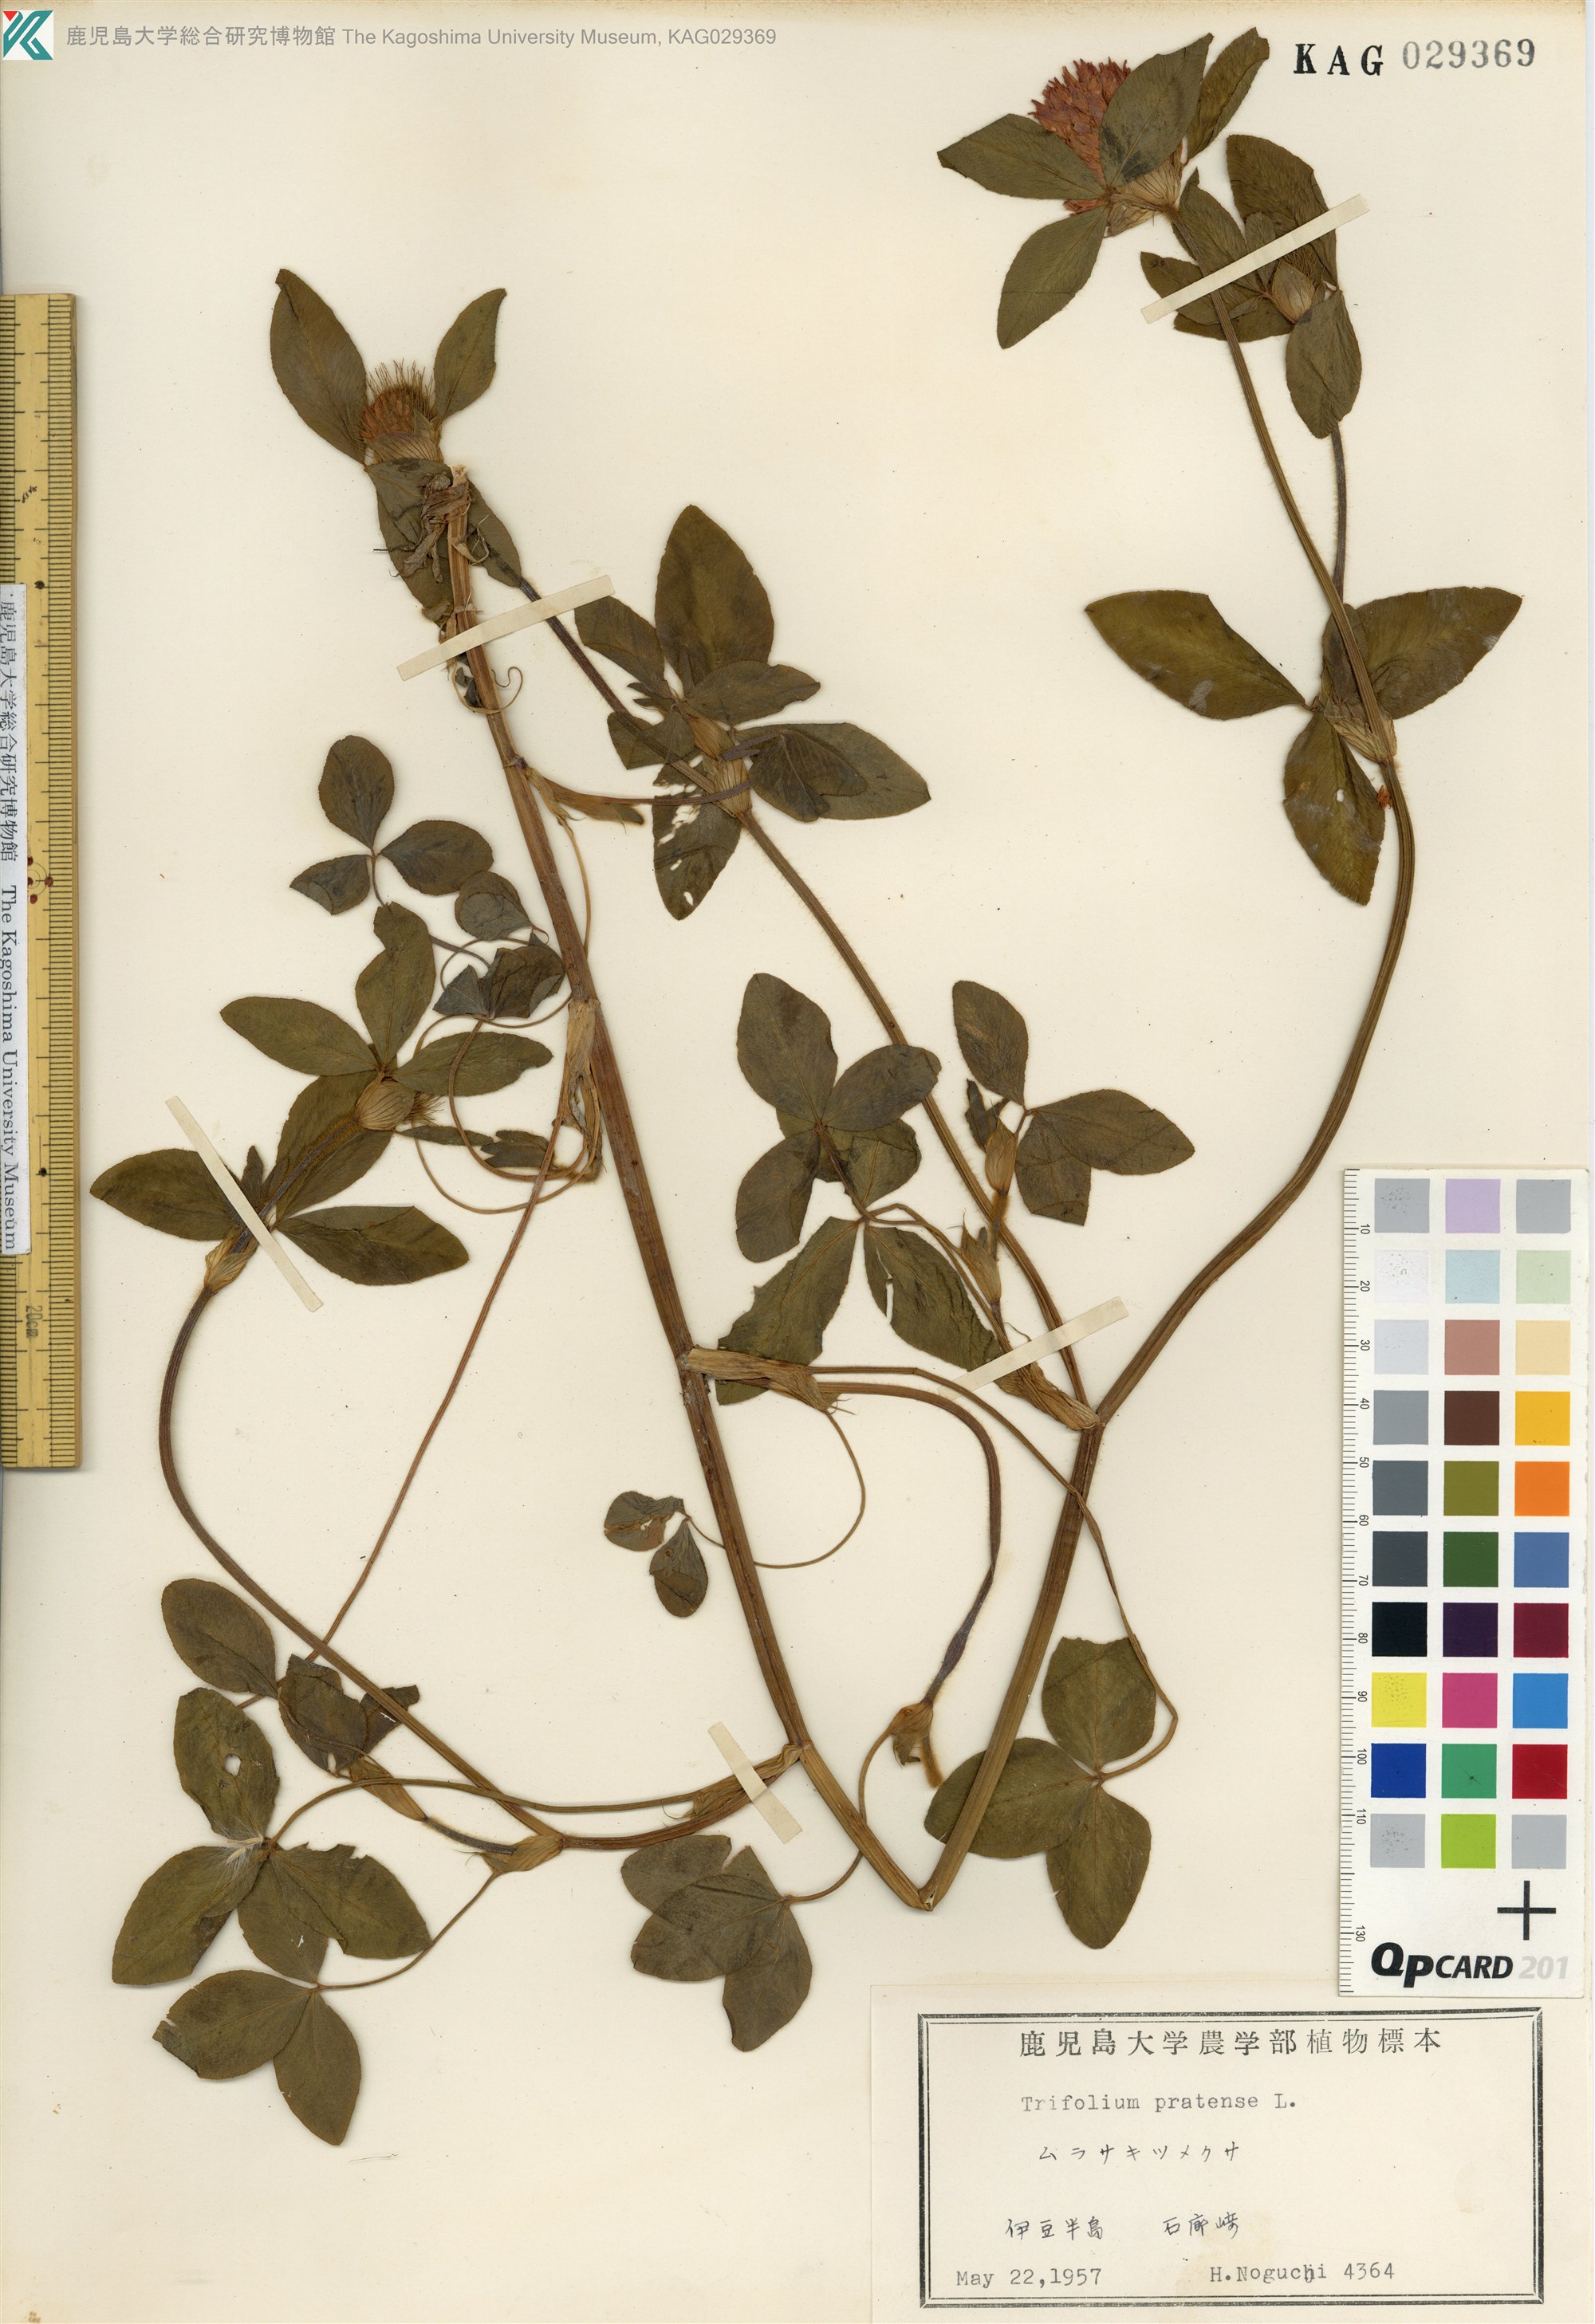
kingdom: Plantae
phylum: Tracheophyta
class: Magnoliopsida
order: Fabales
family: Fabaceae
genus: Trifolium
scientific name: Trifolium pratense
